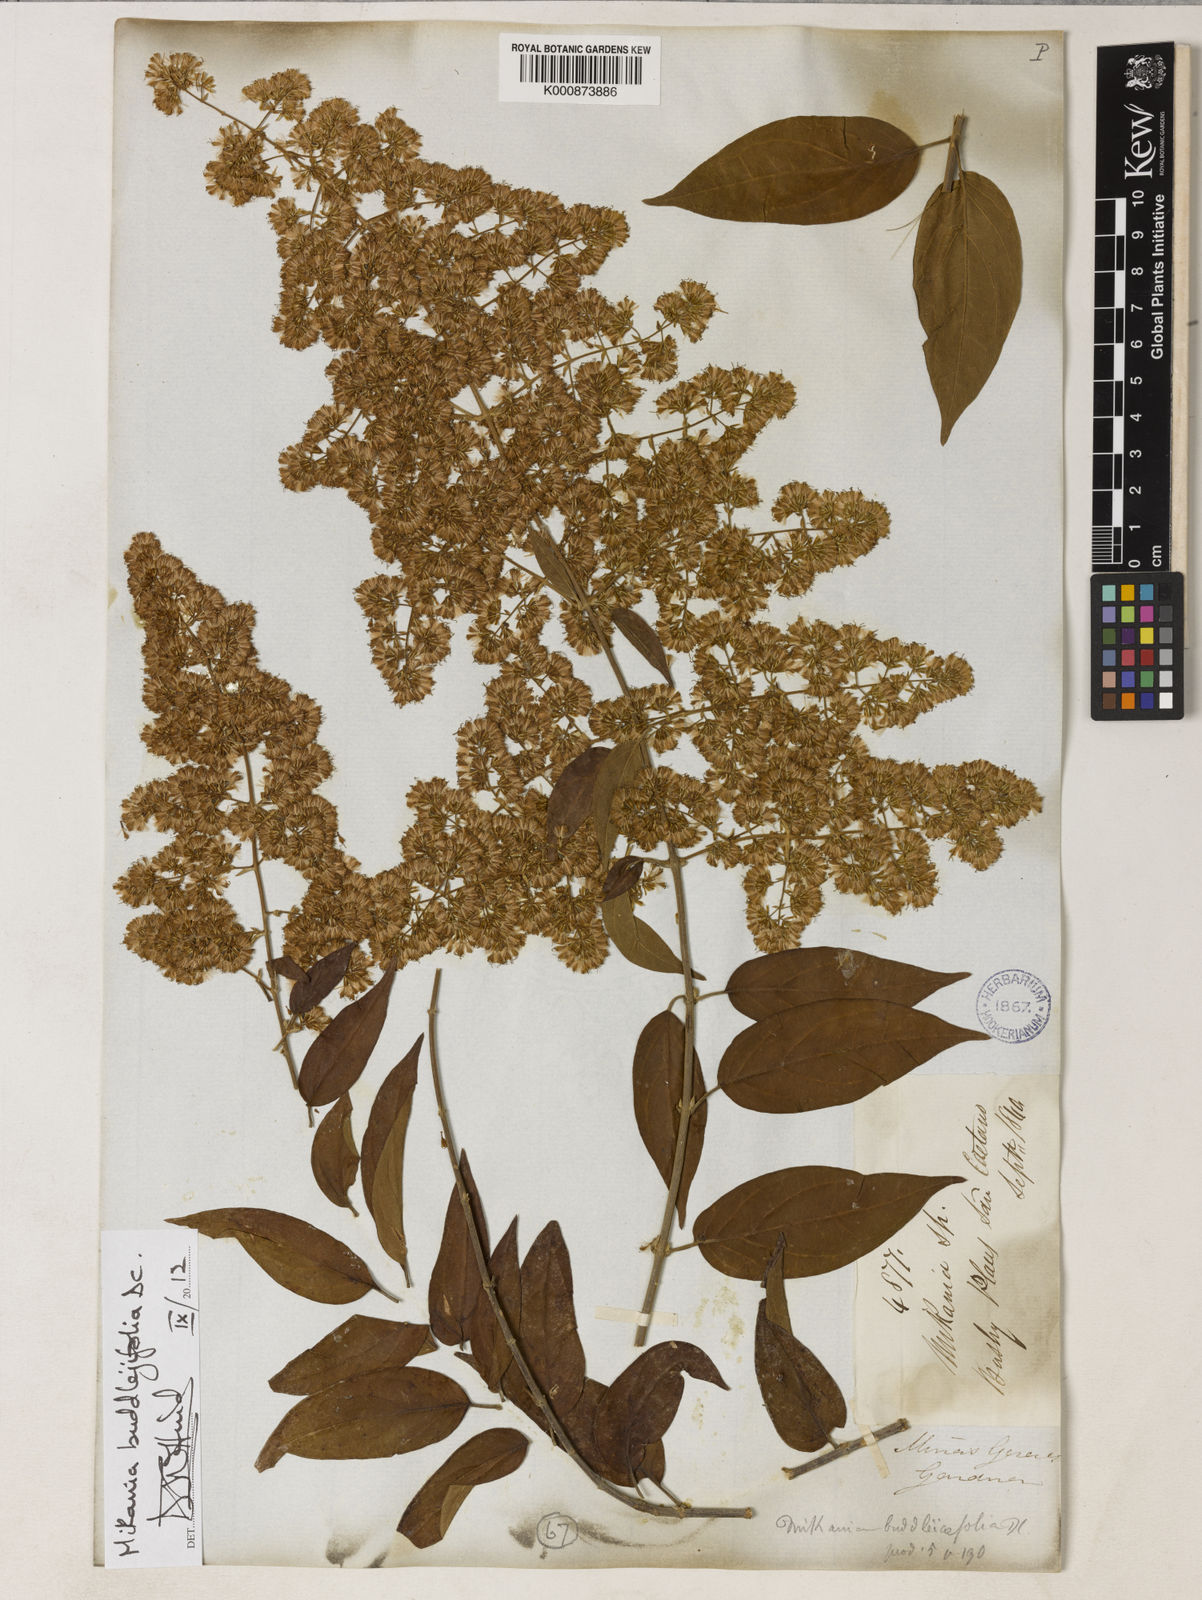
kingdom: Plantae
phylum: Tracheophyta
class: Magnoliopsida
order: Asterales
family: Asteraceae
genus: Mikania
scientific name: Mikania buddlejifolia
